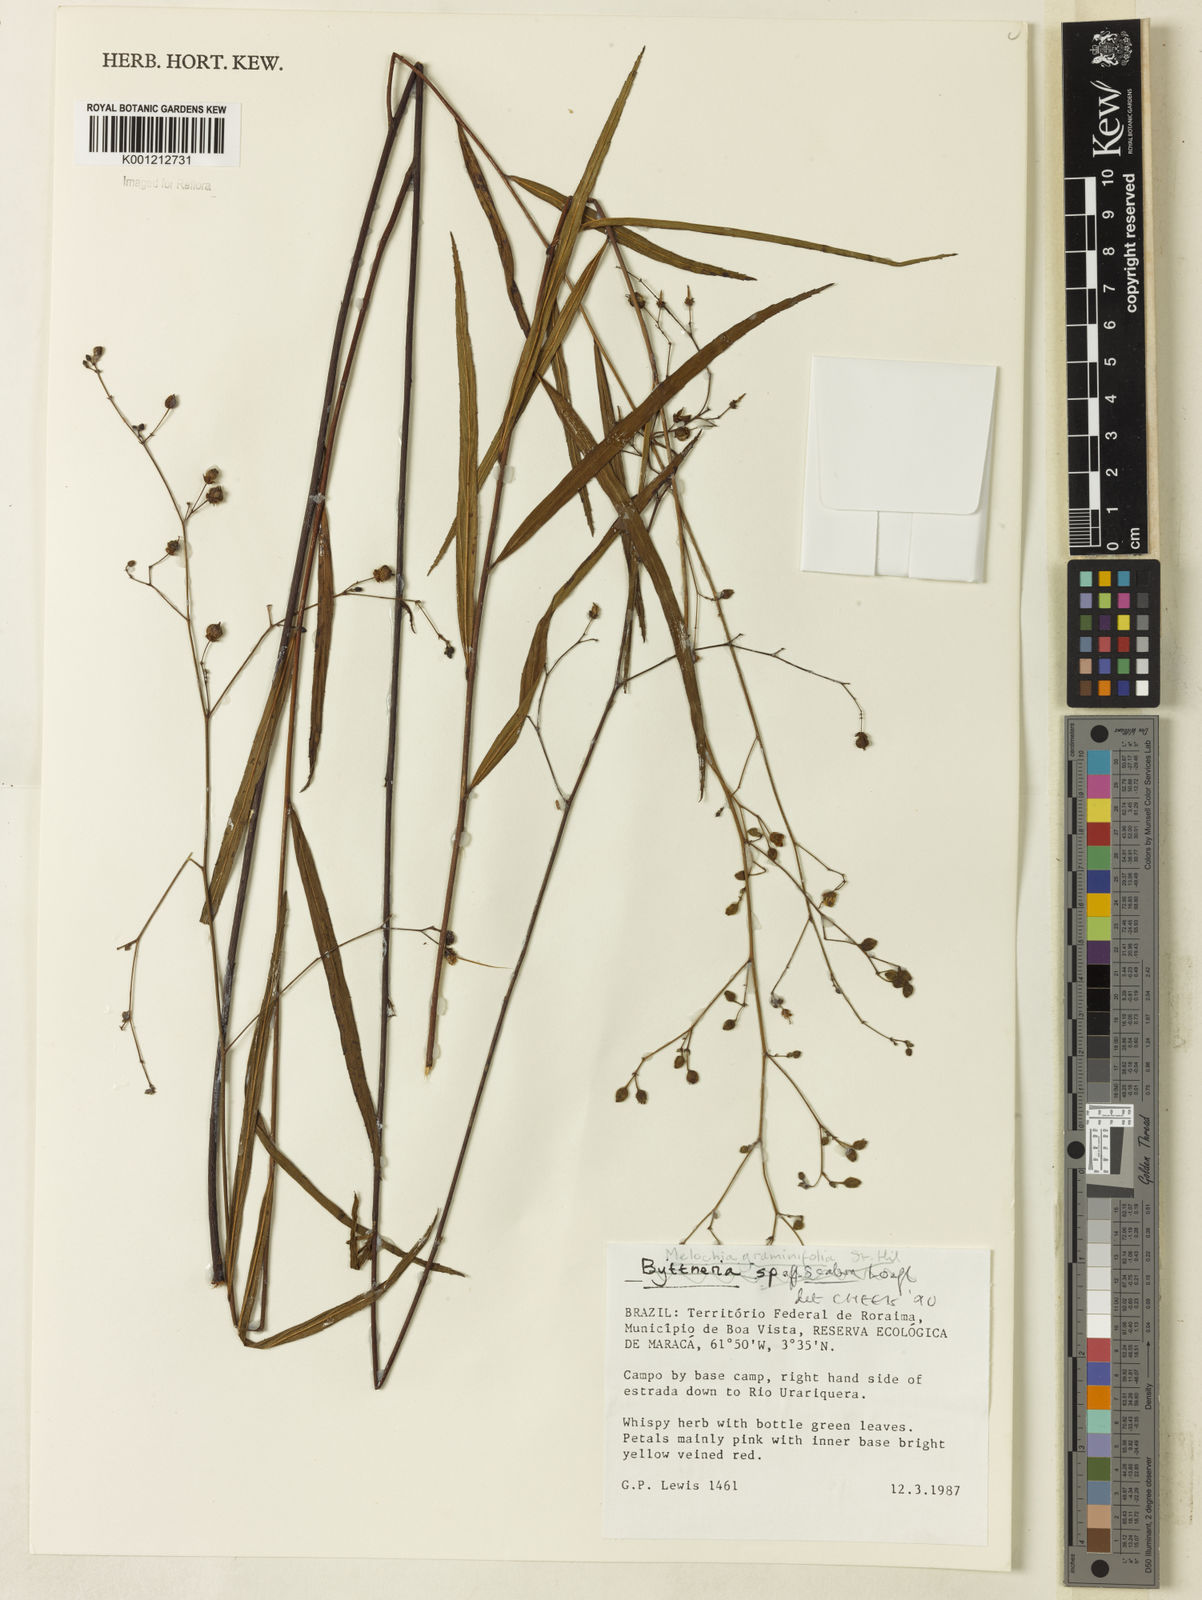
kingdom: Plantae
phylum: Tracheophyta
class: Magnoliopsida
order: Malvales
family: Malvaceae
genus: Melochia
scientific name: Melochia graminifolia
